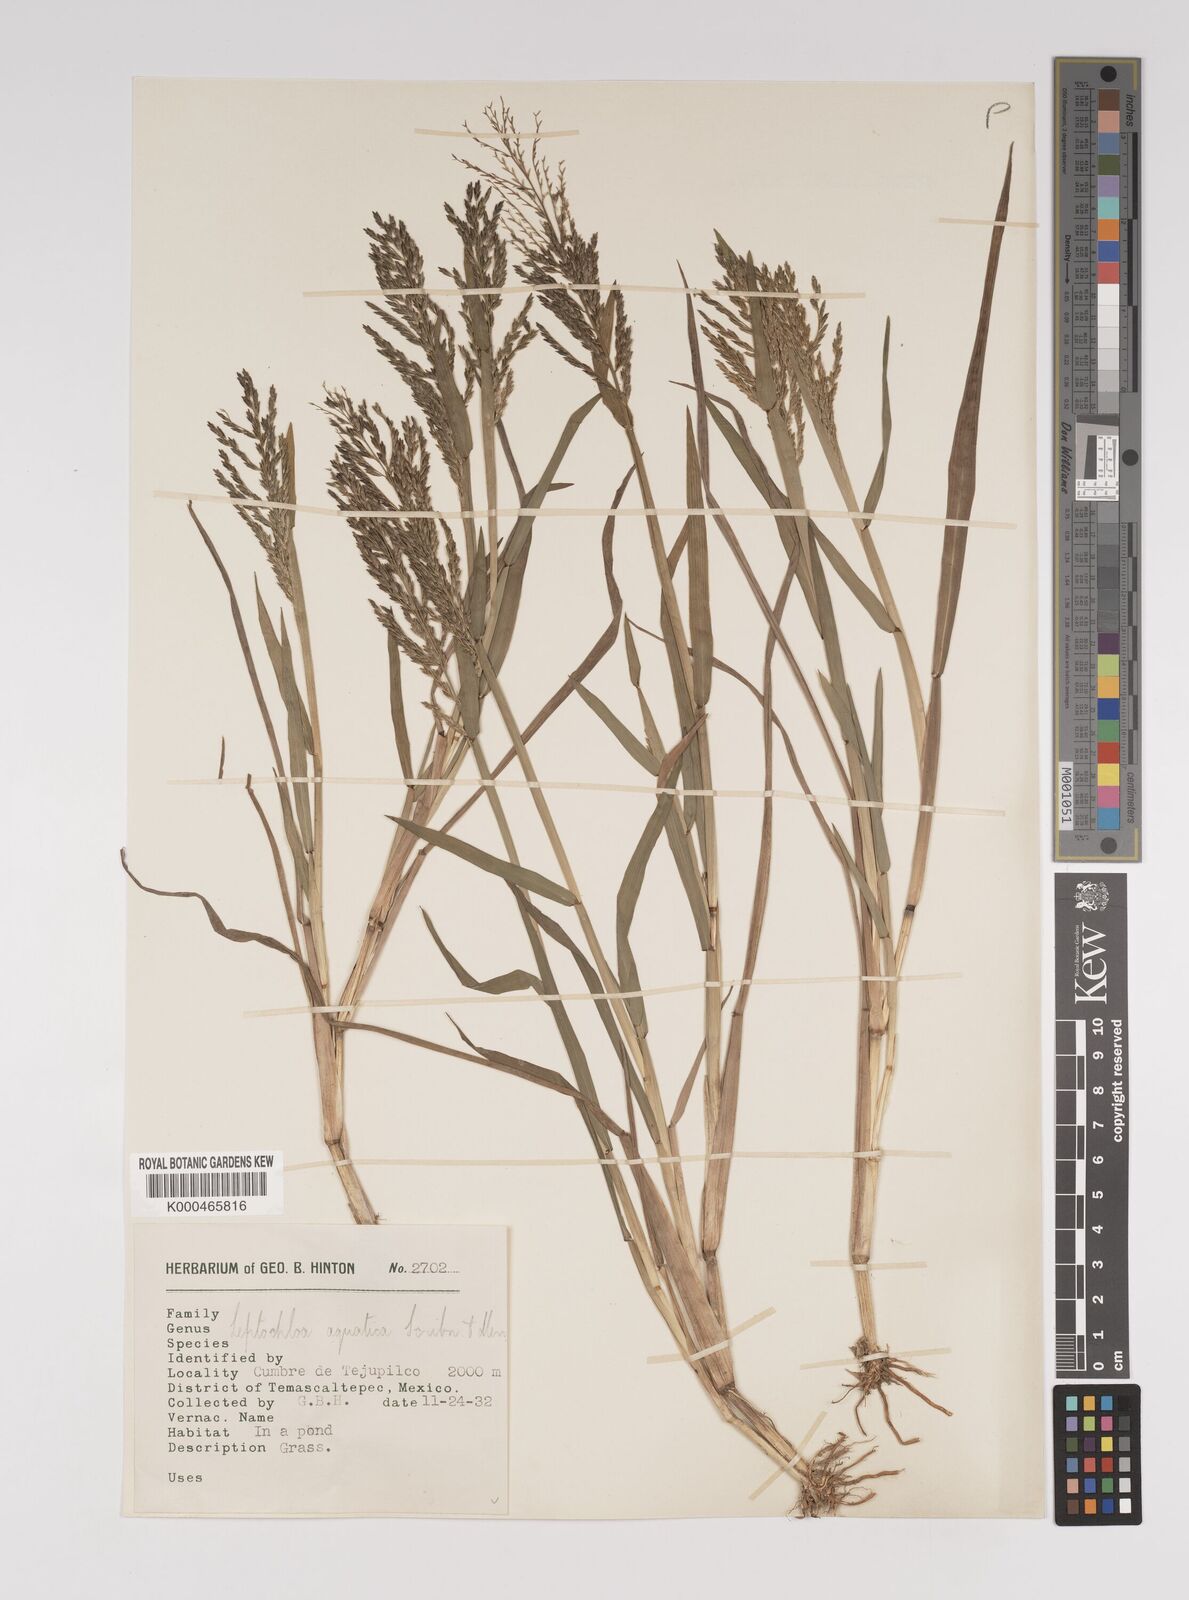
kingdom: Plantae
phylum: Tracheophyta
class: Liliopsida
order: Poales
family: Poaceae
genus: Eragrostis
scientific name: Eragrostis aquatica
